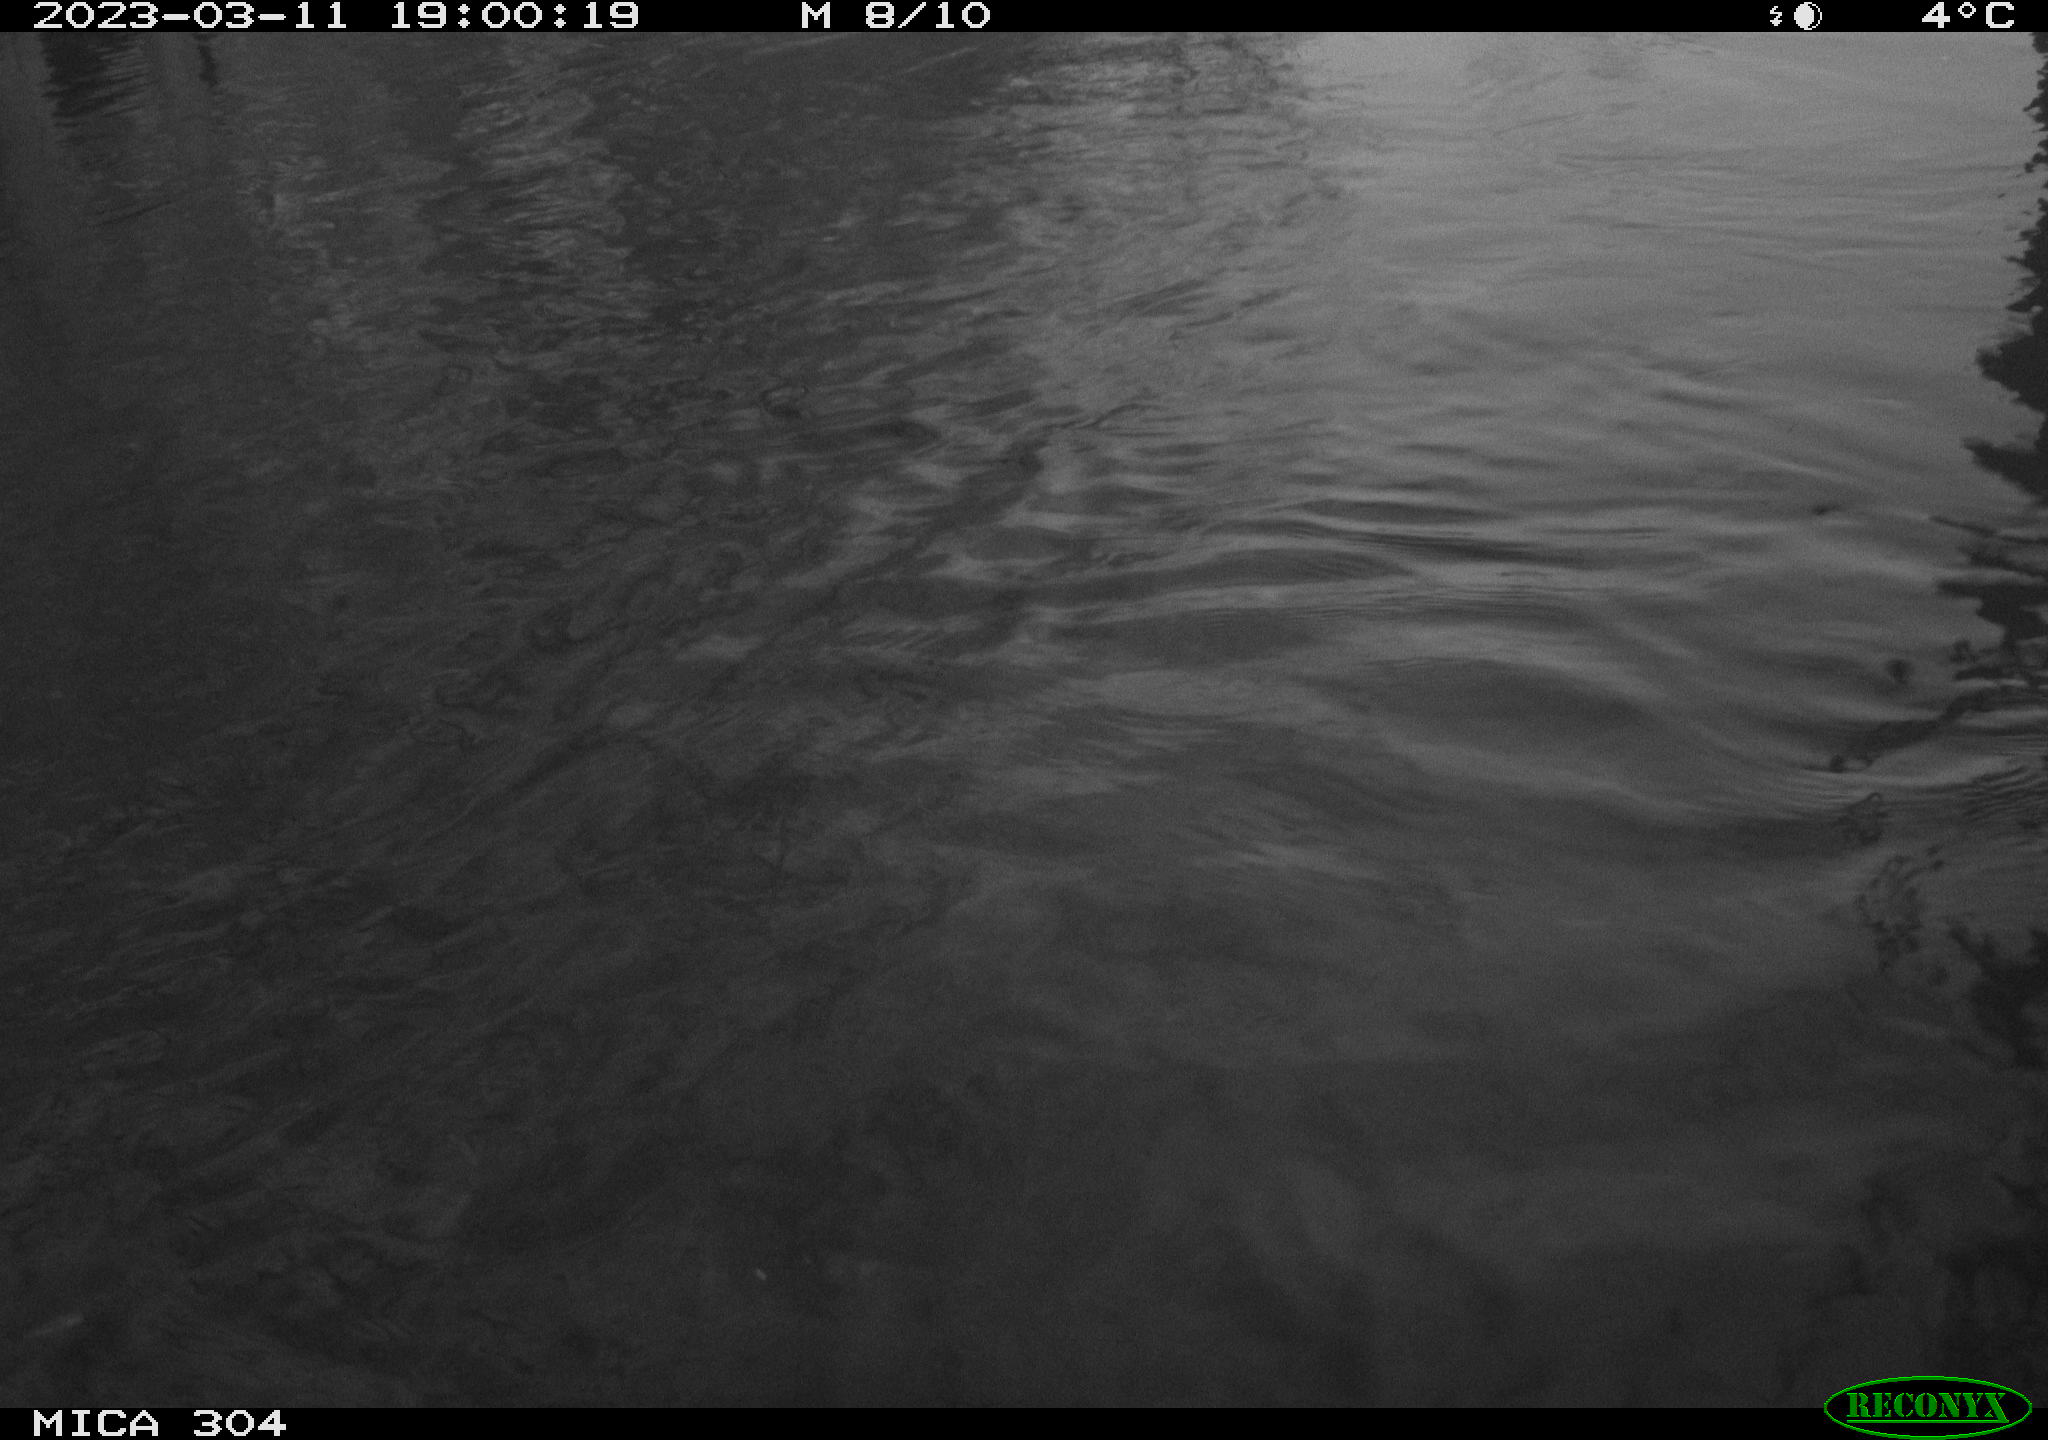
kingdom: Animalia
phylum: Chordata
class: Aves
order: Gruiformes
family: Rallidae
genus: Fulica
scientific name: Fulica atra
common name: Eurasian coot
